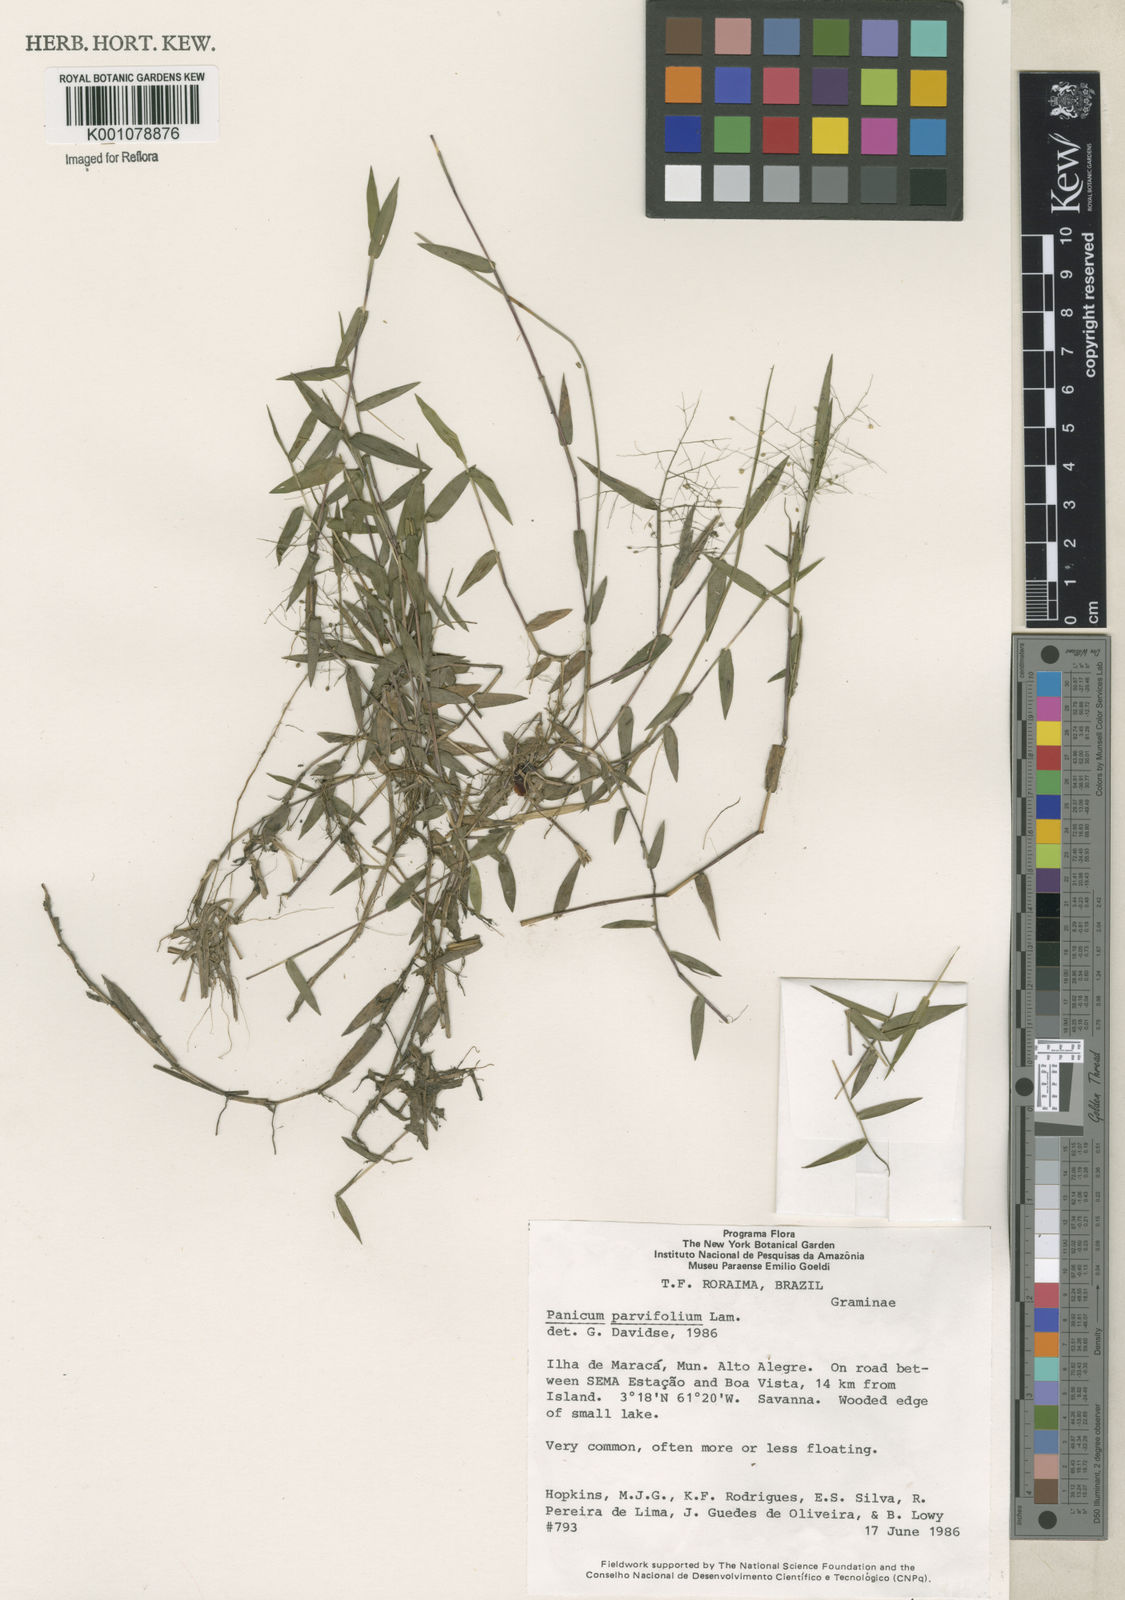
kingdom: Plantae
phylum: Tracheophyta
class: Liliopsida
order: Poales
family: Poaceae
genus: Trichanthecium
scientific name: Trichanthecium parvifolium
